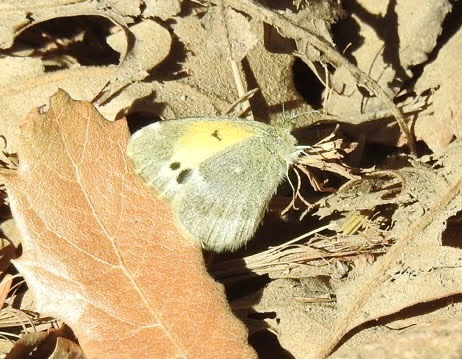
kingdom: Animalia
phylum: Arthropoda
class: Insecta
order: Lepidoptera
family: Pieridae
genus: Nathalis
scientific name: Nathalis iole
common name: Dainty Sulphur
